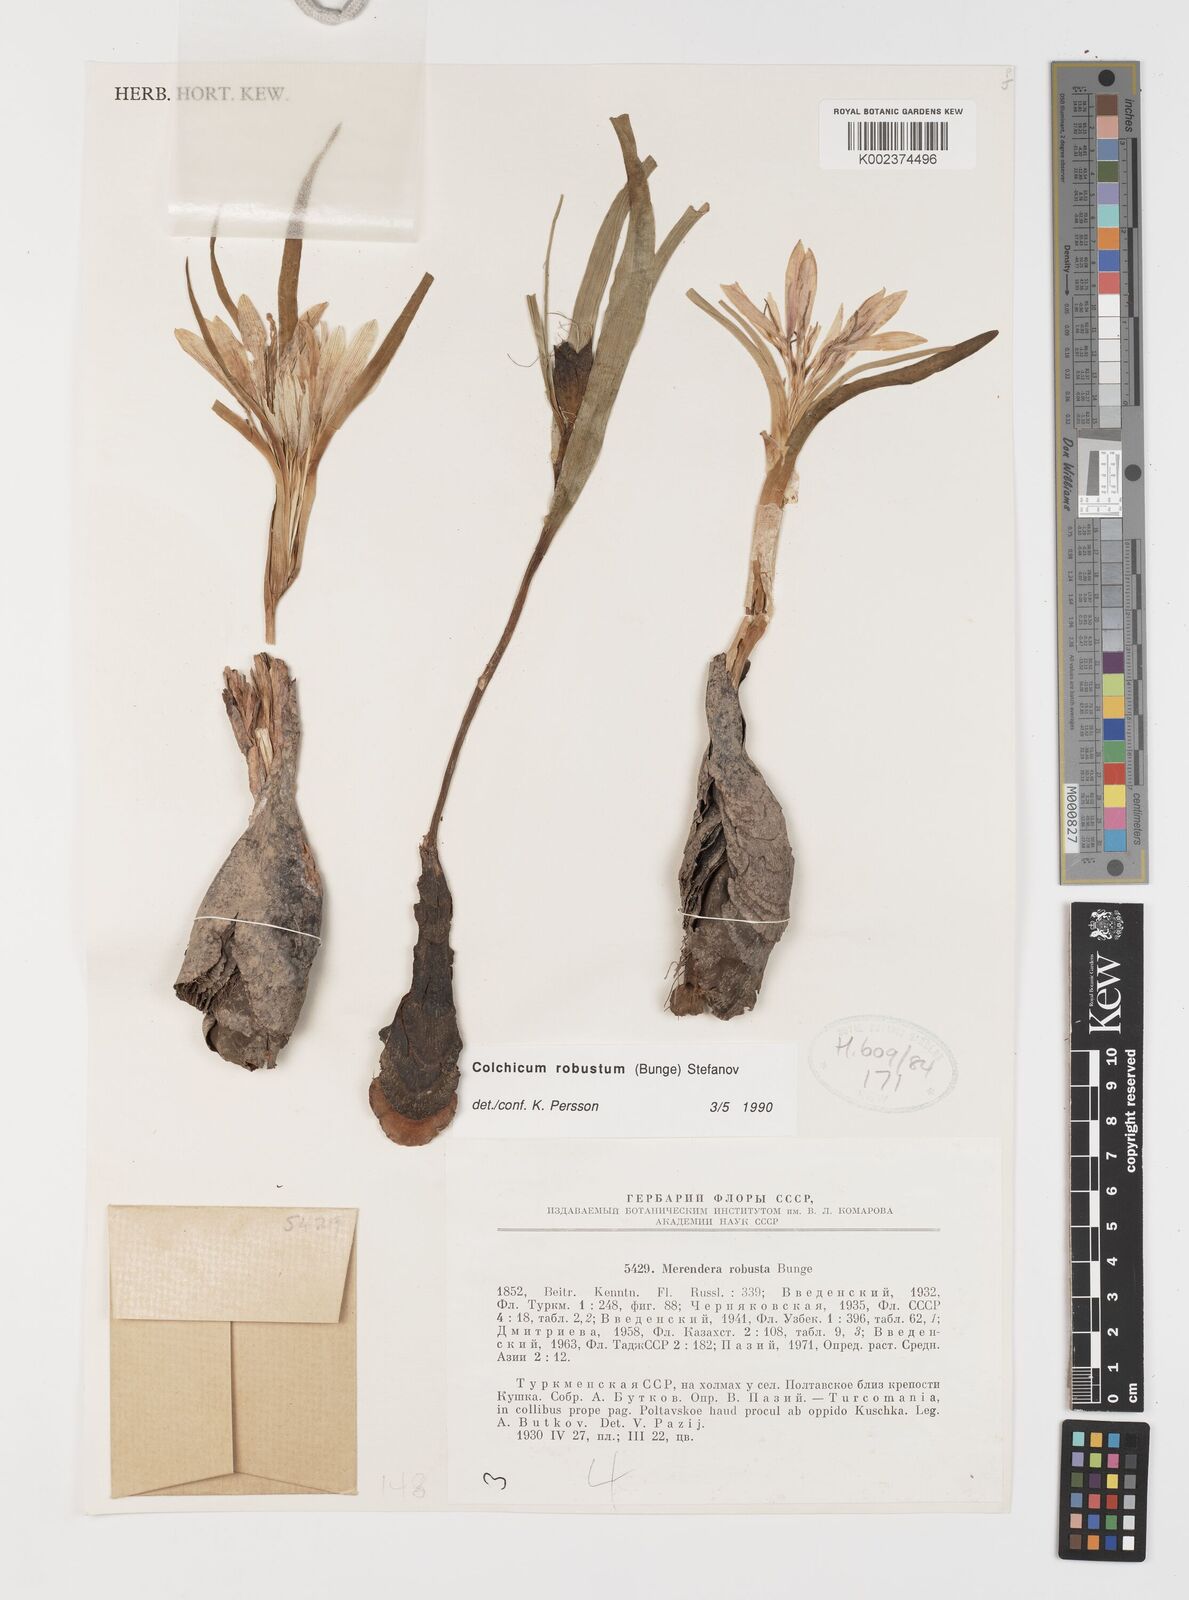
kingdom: Plantae
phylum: Tracheophyta
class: Liliopsida
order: Liliales
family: Colchicaceae
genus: Colchicum
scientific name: Colchicum robustum
